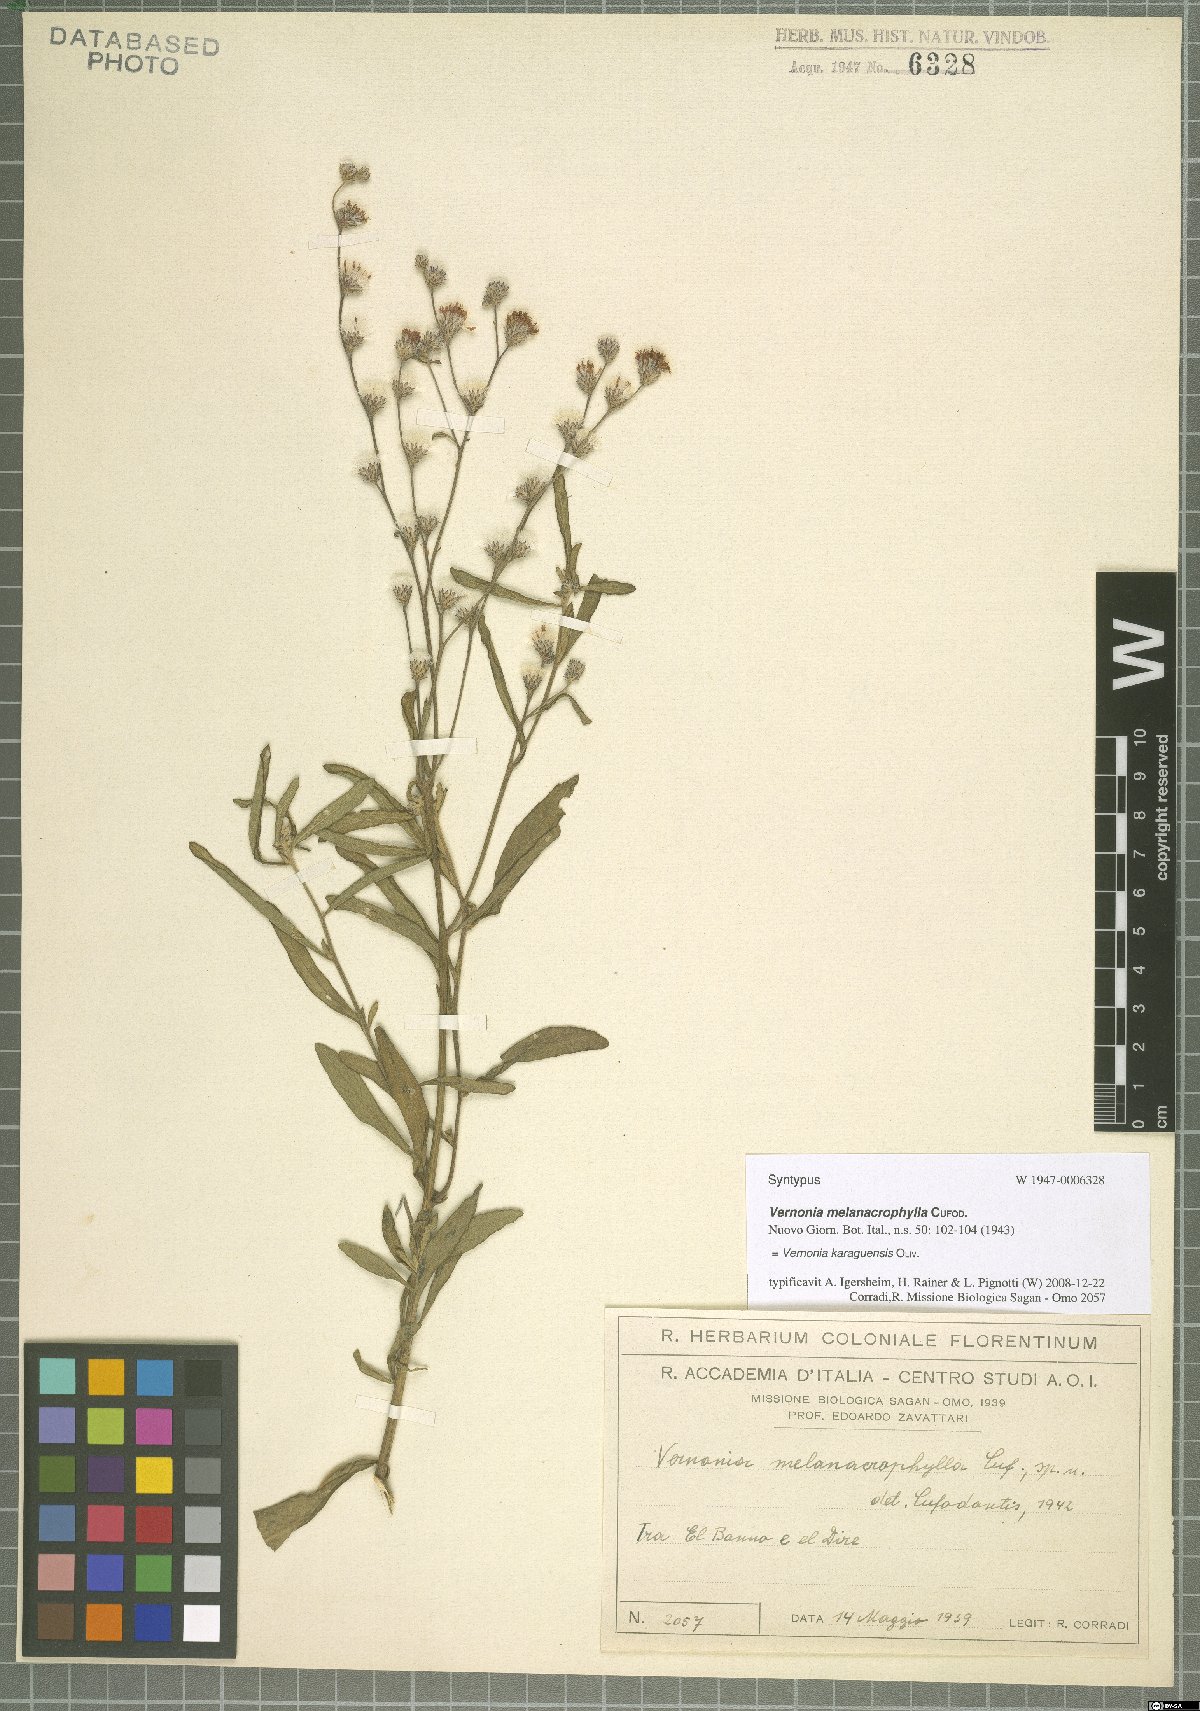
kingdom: Plantae
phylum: Tracheophyta
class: Magnoliopsida
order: Asterales
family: Asteraceae
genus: Orbivestus
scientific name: Orbivestus karaguensis
